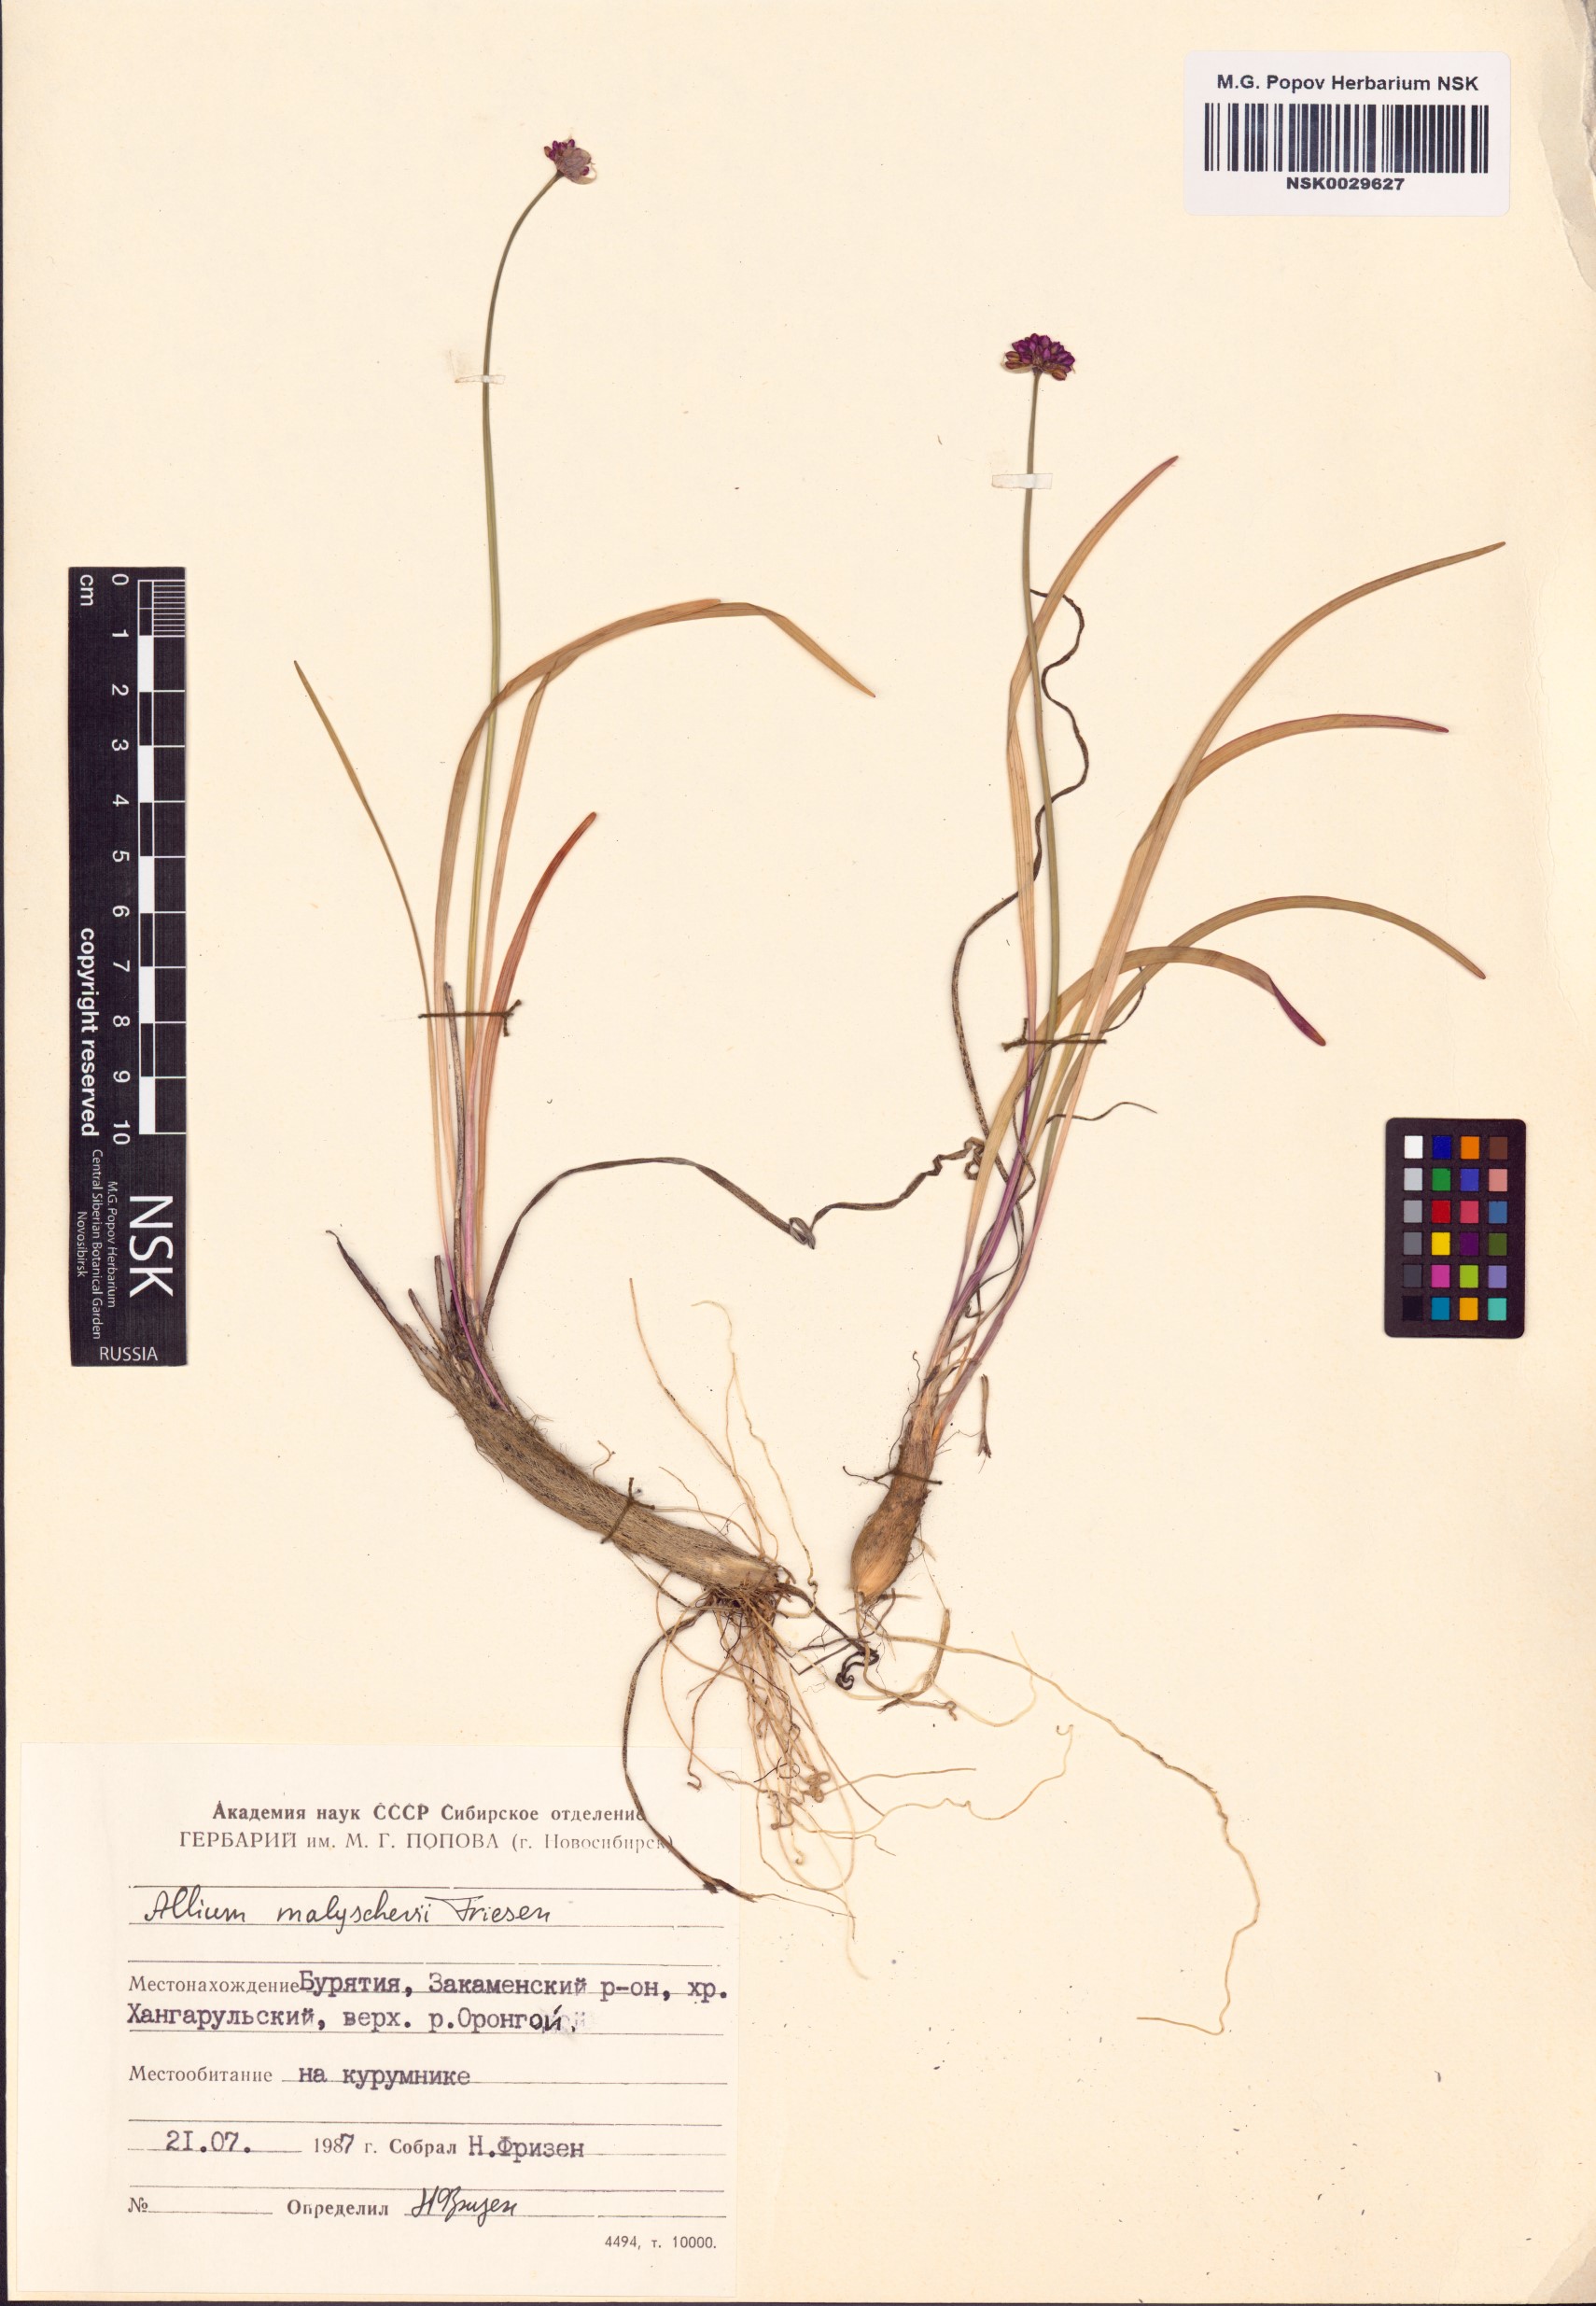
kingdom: Plantae
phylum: Tracheophyta
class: Liliopsida
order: Asparagales
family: Amaryllidaceae
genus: Allium
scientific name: Allium malyschevii
